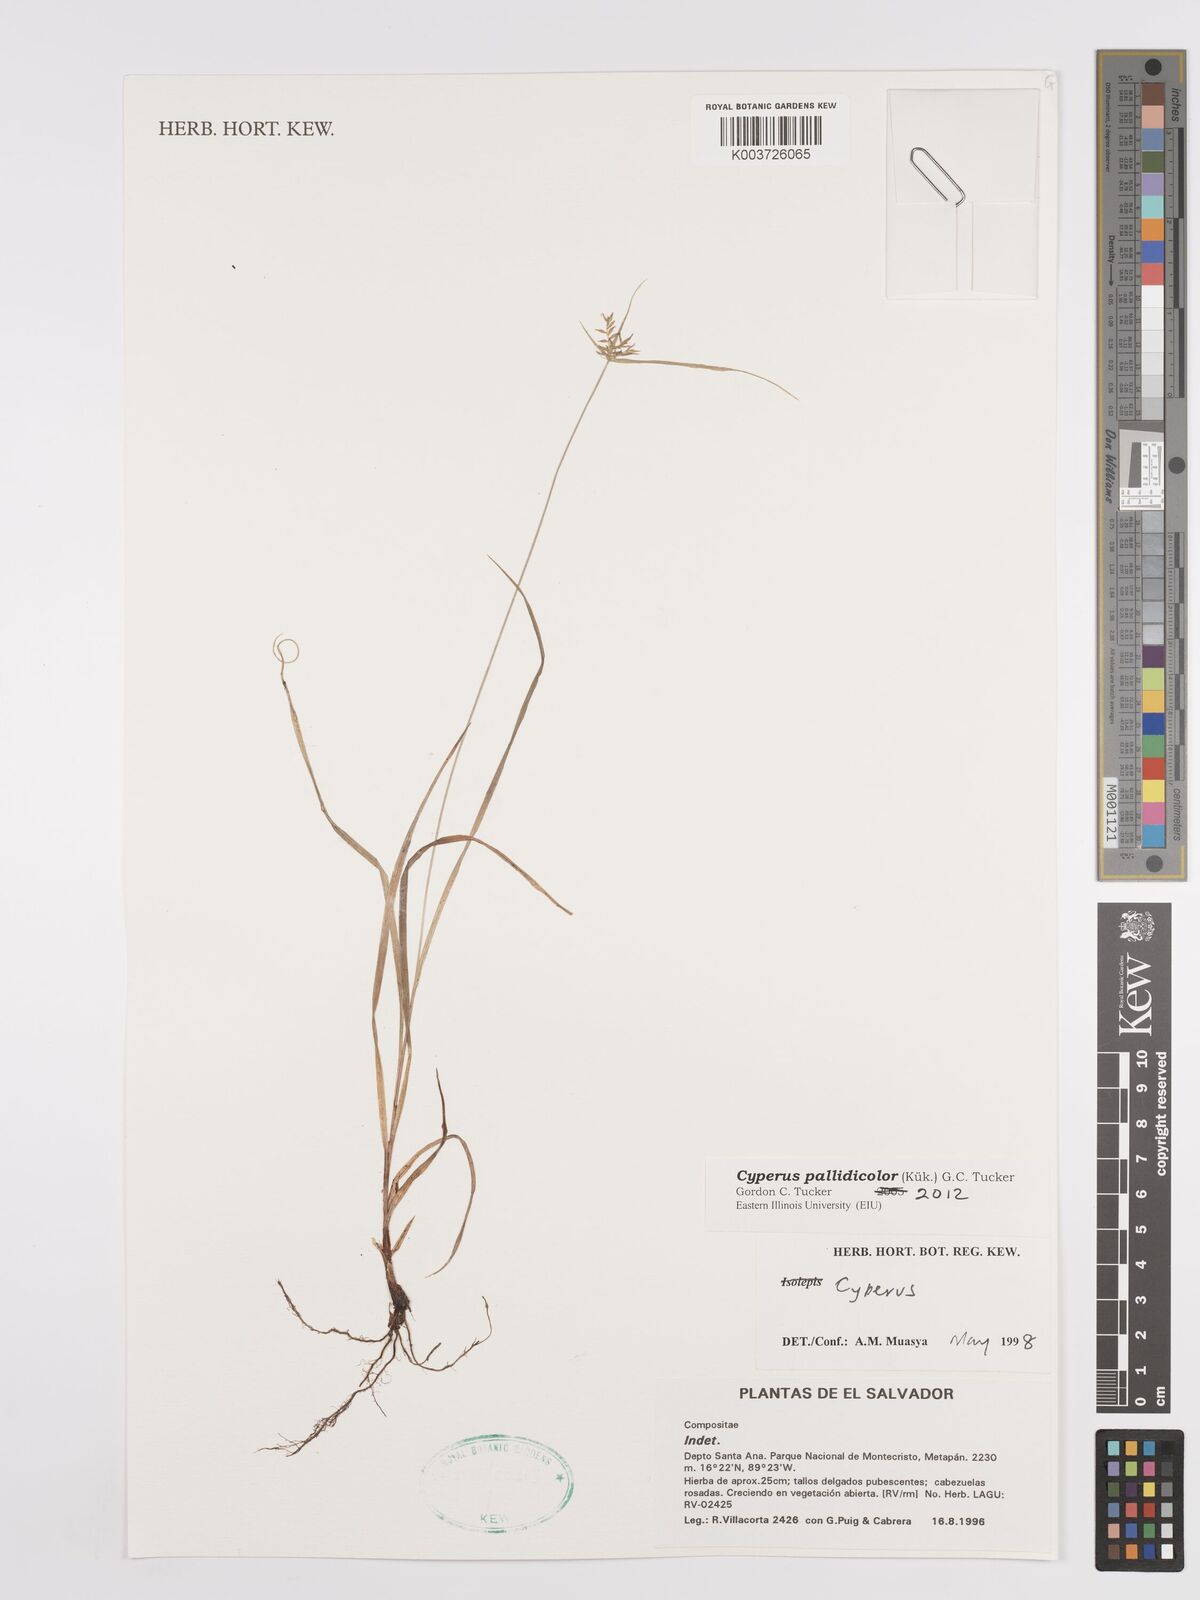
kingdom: Plantae
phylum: Tracheophyta
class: Liliopsida
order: Poales
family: Cyperaceae
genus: Cyperus
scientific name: Cyperus pallidicolor
